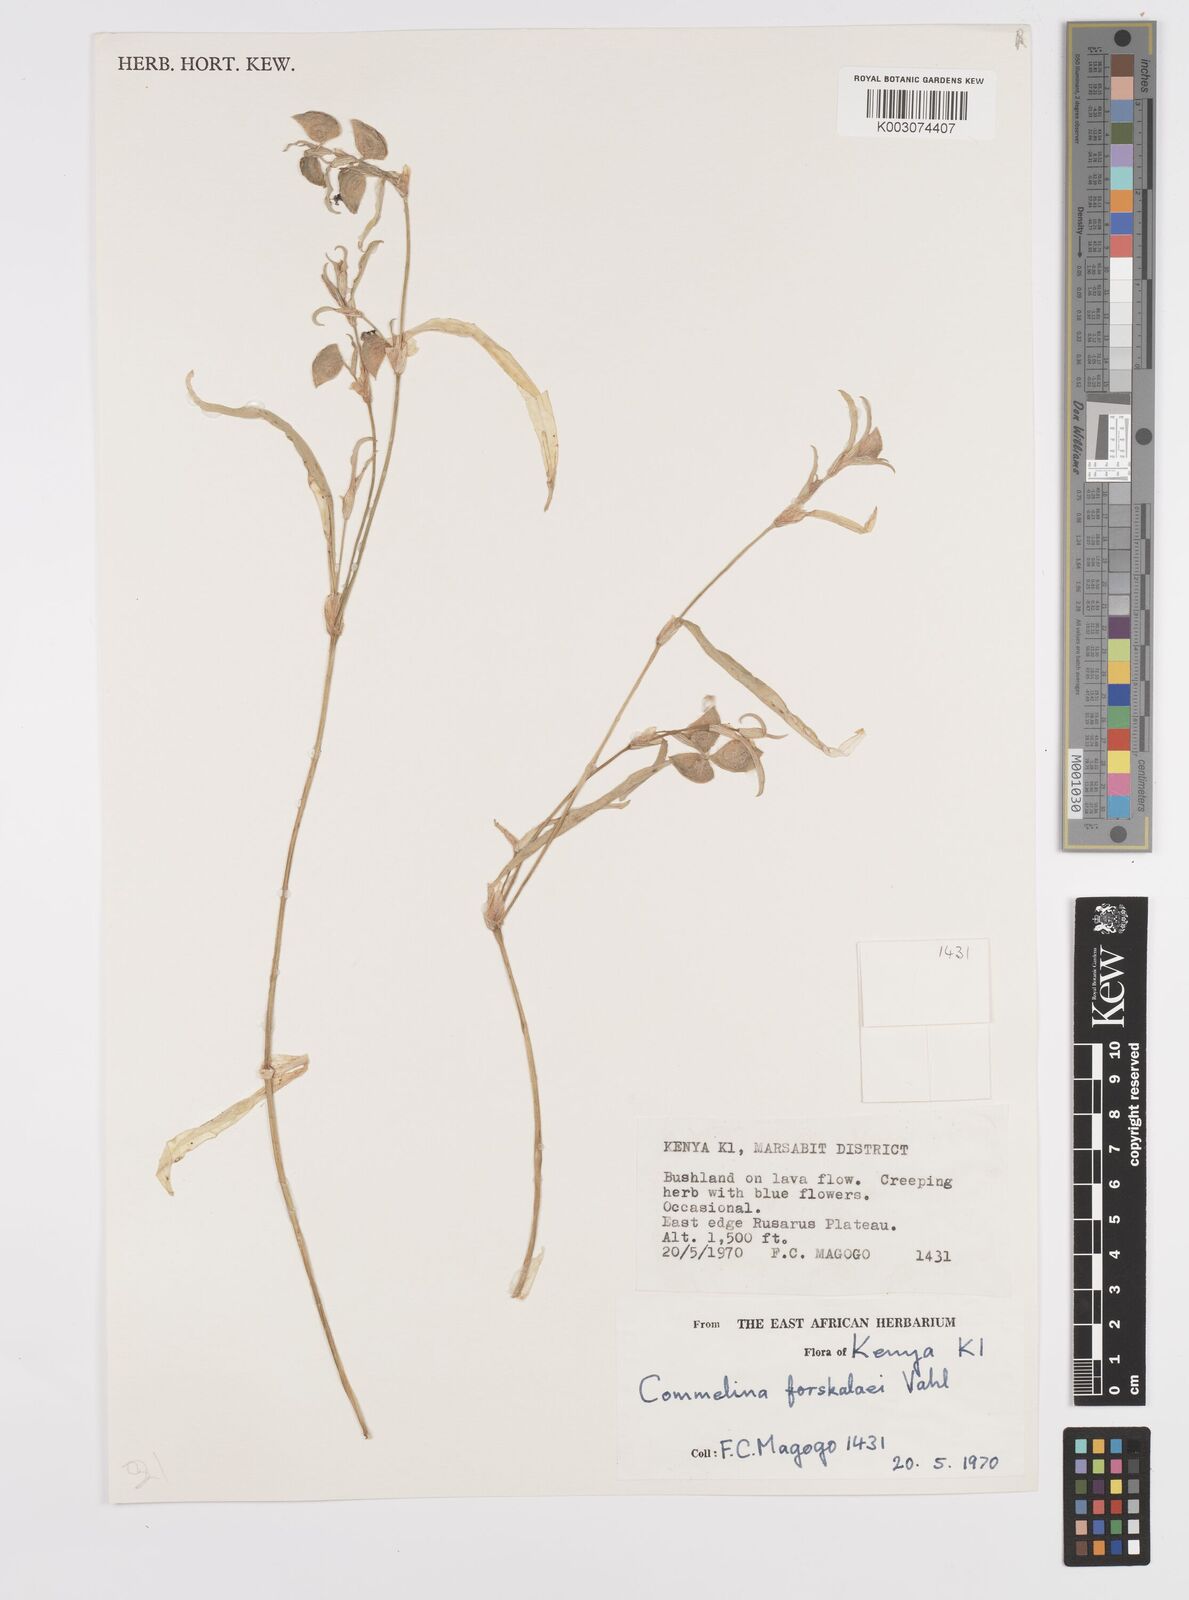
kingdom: Plantae
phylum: Tracheophyta
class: Liliopsida
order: Commelinales
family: Commelinaceae
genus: Commelina
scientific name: Commelina forskaolii
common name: Rat's ear
